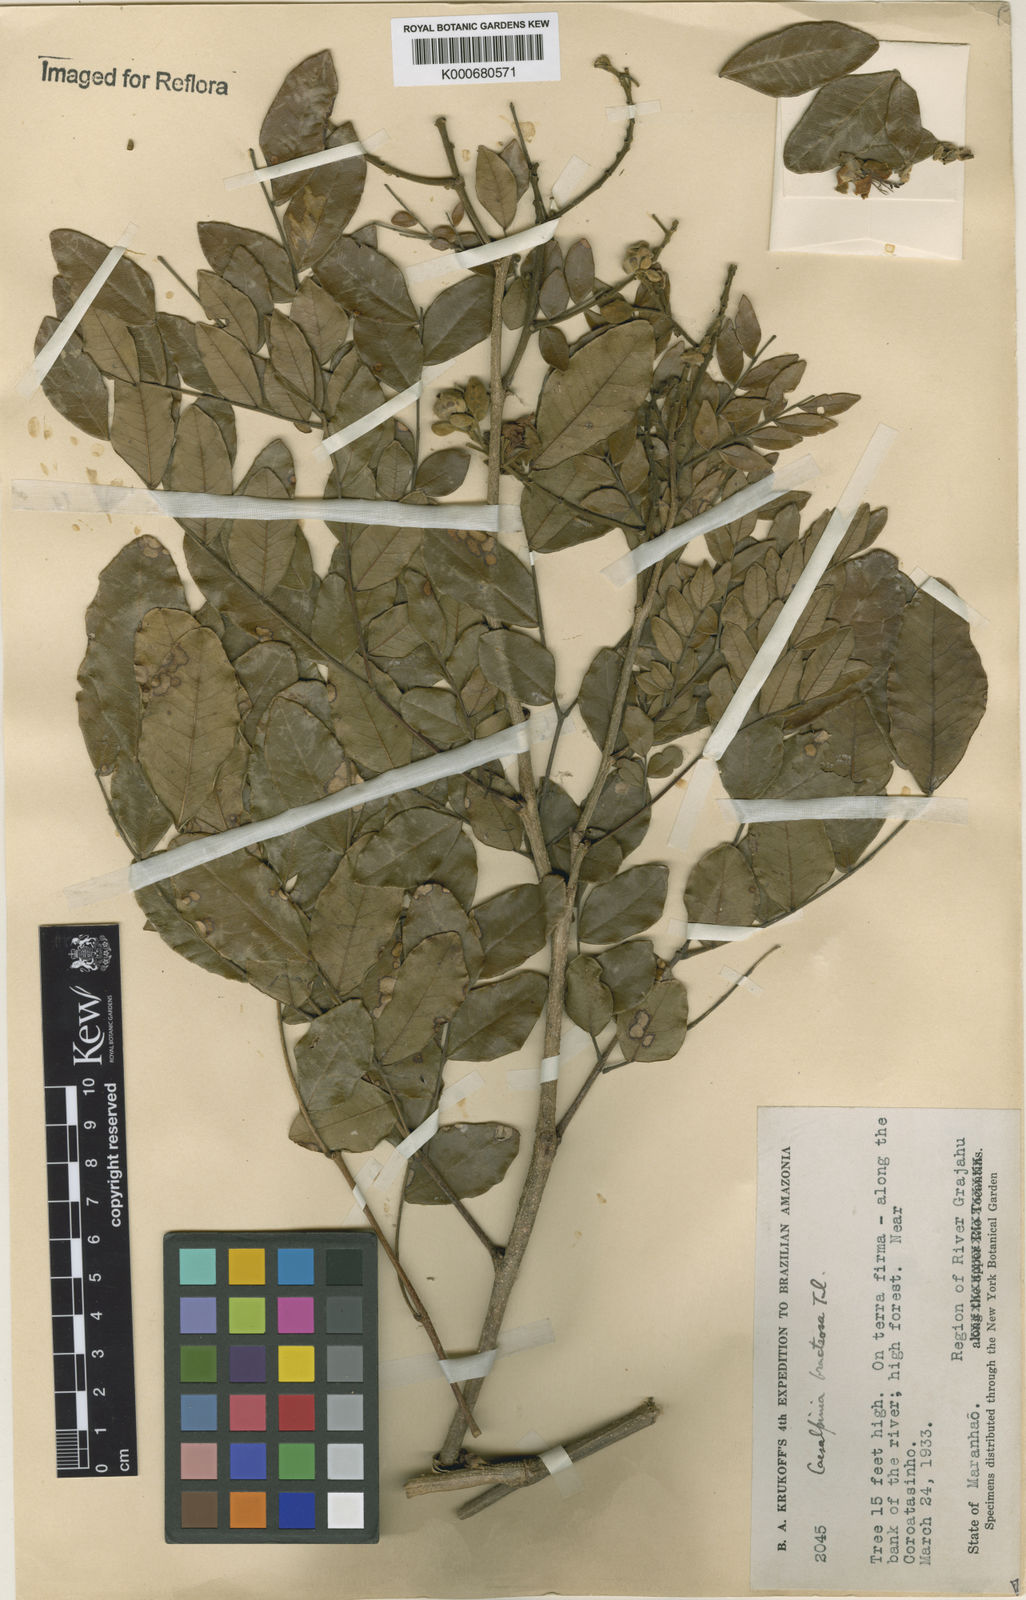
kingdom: Plantae
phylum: Tracheophyta
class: Magnoliopsida
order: Fabales
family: Fabaceae
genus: Cenostigma
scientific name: Cenostigma bracteosum
